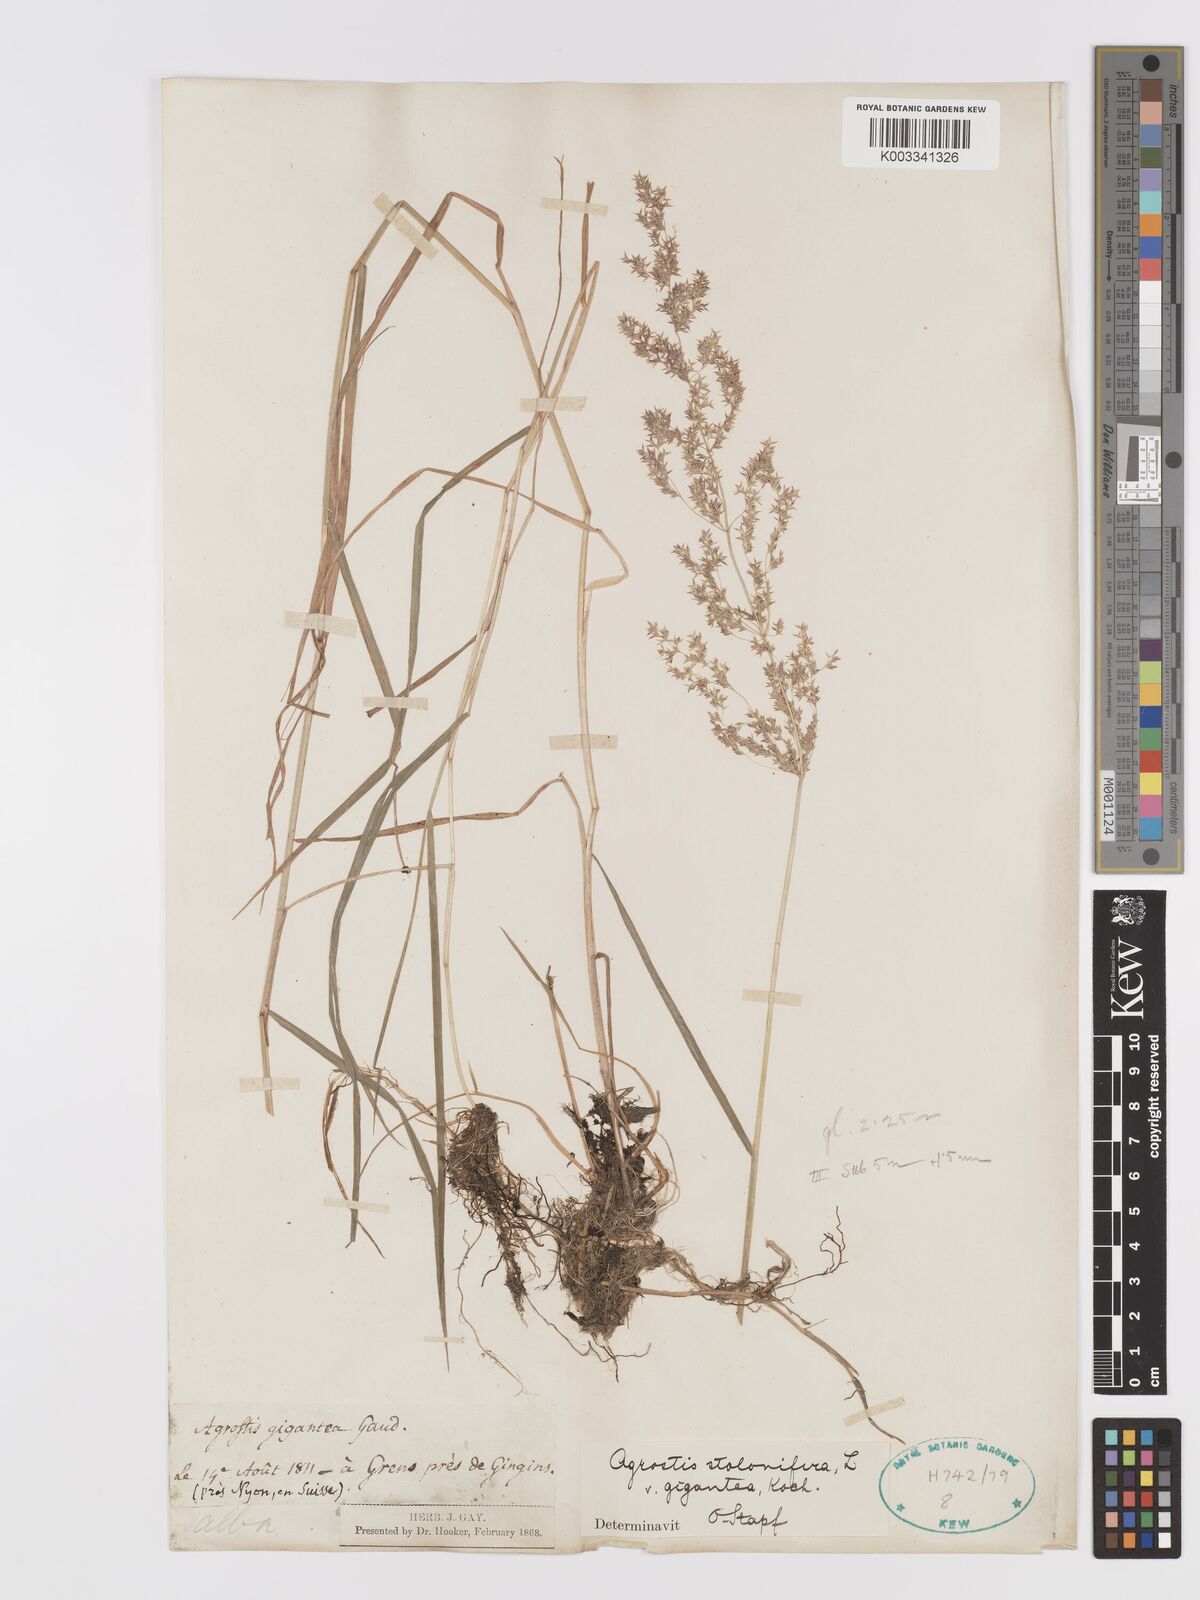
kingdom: Plantae
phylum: Tracheophyta
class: Liliopsida
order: Poales
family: Poaceae
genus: Agrostis
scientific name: Agrostis gigantea
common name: Black bent
